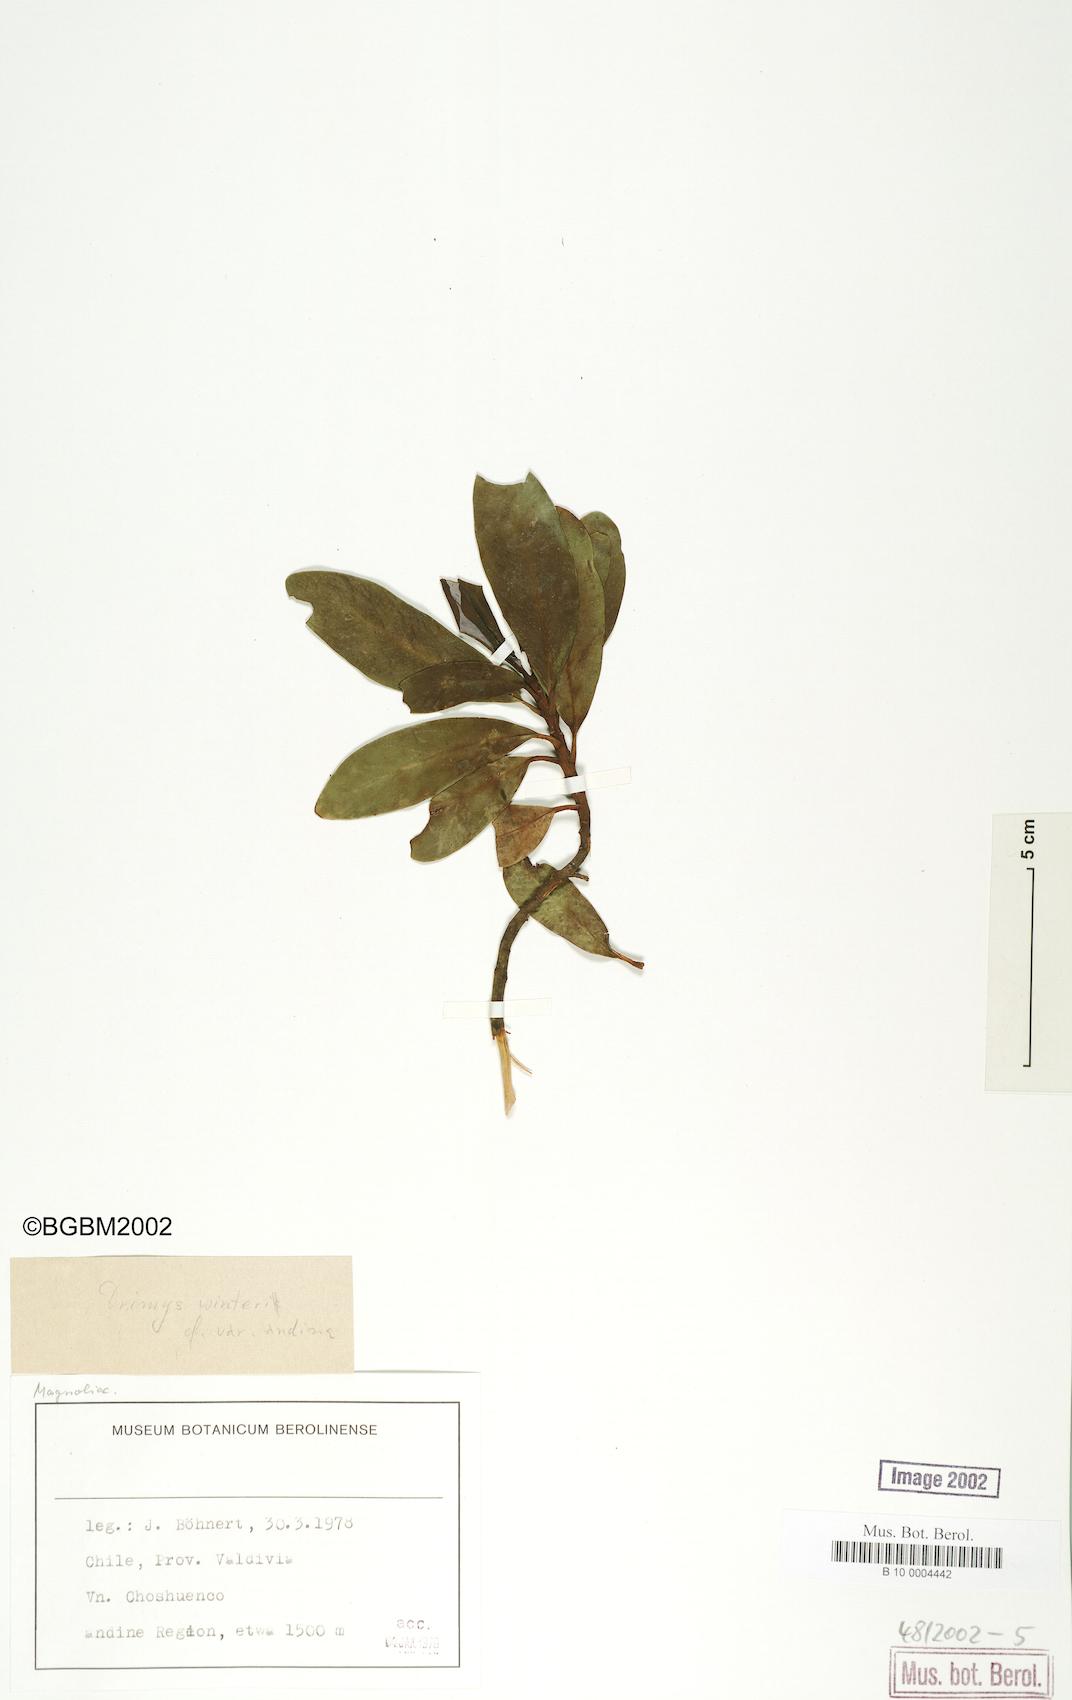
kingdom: Plantae
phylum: Tracheophyta
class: Magnoliopsida
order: Canellales
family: Winteraceae
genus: Drimys
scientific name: Drimys winteri
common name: Winter's-bark
